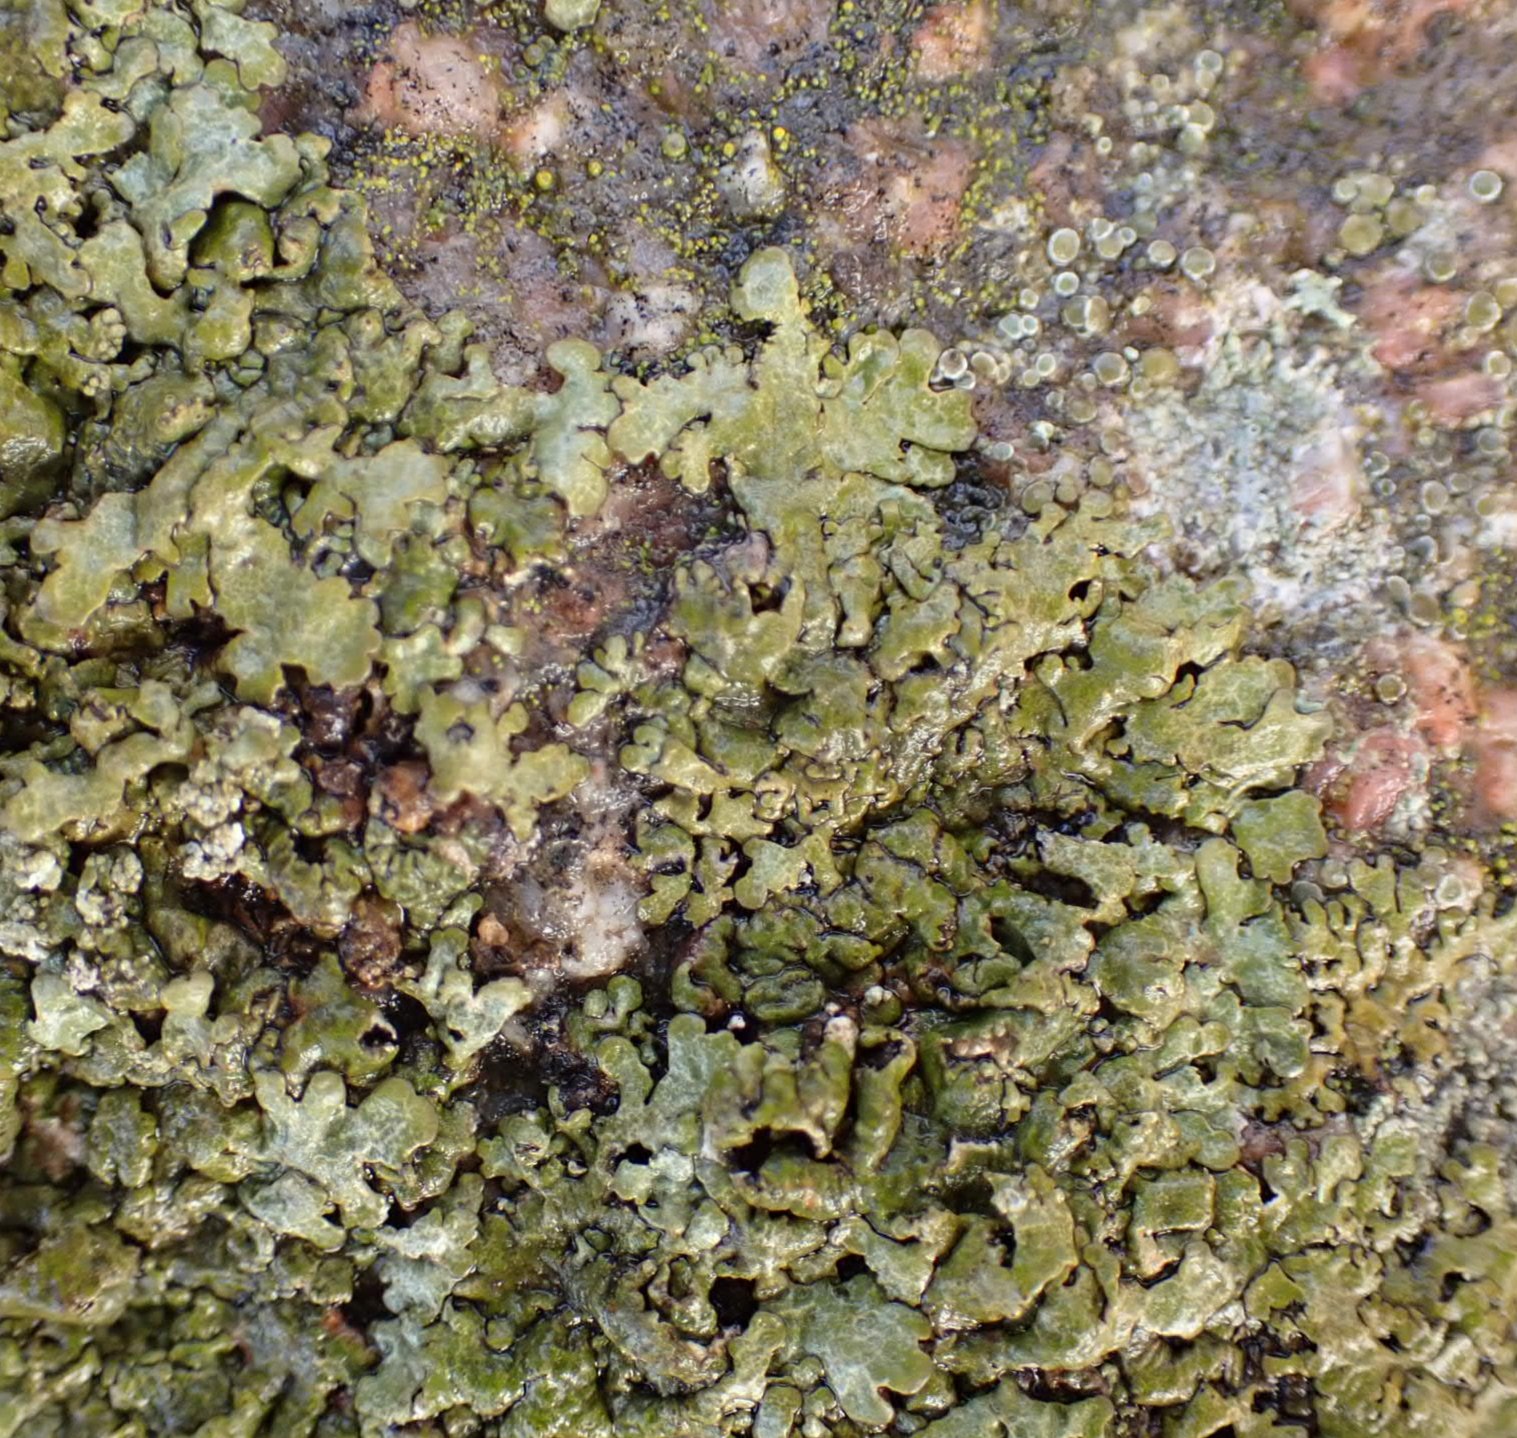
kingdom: Fungi
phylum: Ascomycota
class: Lecanoromycetes
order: Lecanorales
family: Parmeliaceae
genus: Xanthoparmelia
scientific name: Xanthoparmelia loxodes
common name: knudret skållav
